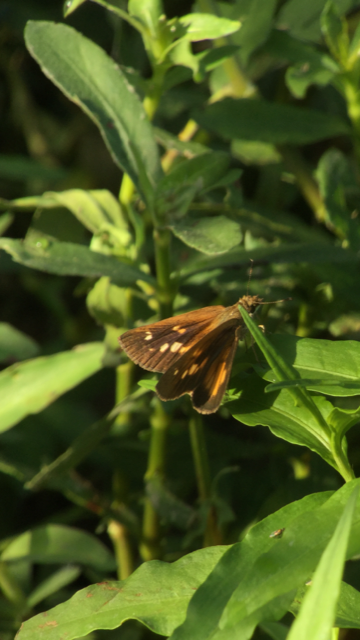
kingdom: Animalia
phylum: Arthropoda
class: Insecta
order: Lepidoptera
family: Hesperiidae
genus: Poanes
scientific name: Poanes viator
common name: Broad-winged Skipper
